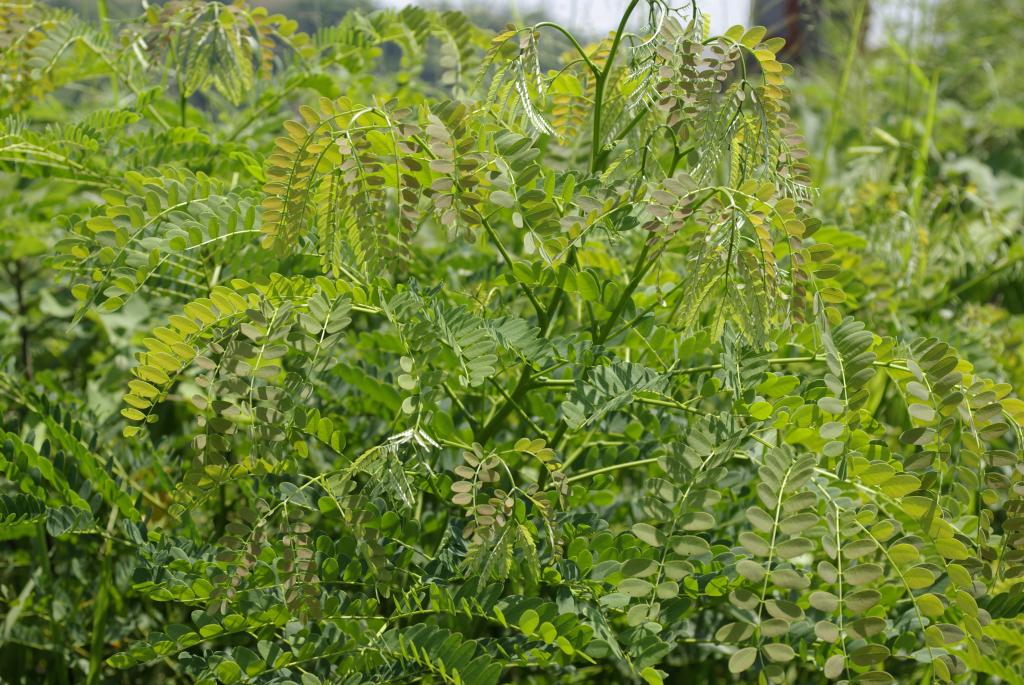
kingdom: Plantae
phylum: Tracheophyta
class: Magnoliopsida
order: Fabales
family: Fabaceae
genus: Albizia
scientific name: Albizia procera
